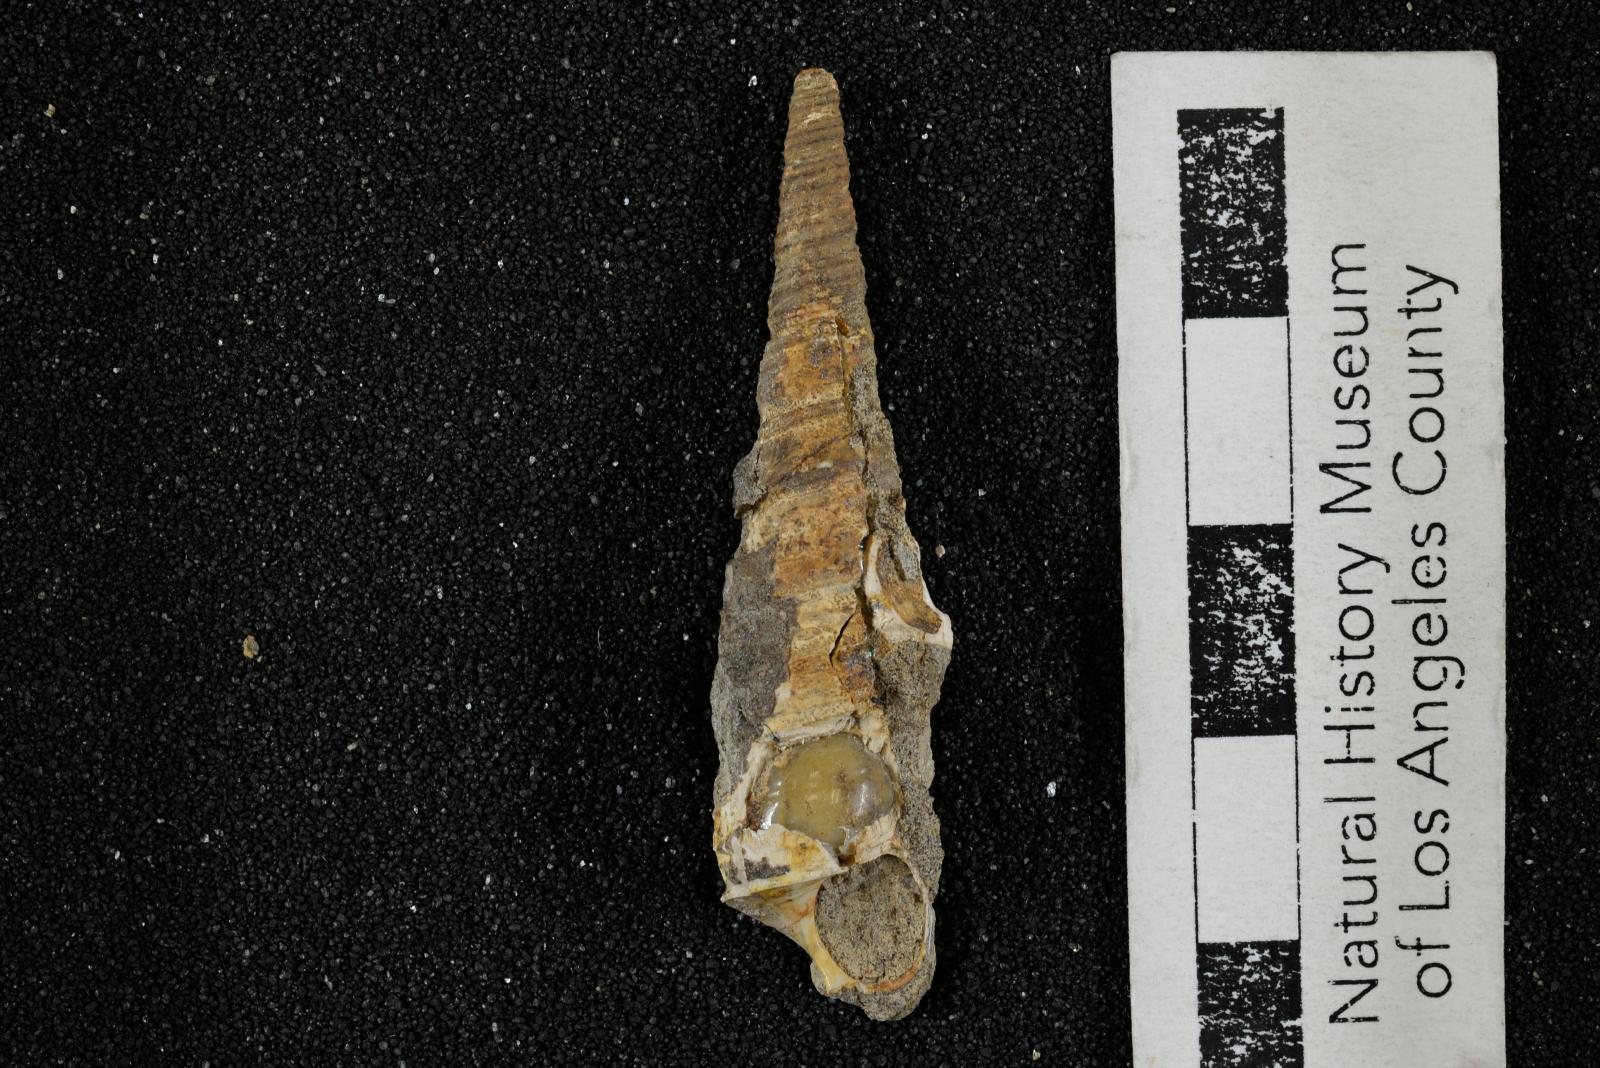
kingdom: Animalia
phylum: Mollusca
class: Gastropoda
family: Turritellidae
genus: Turritella
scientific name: Turritella encina
